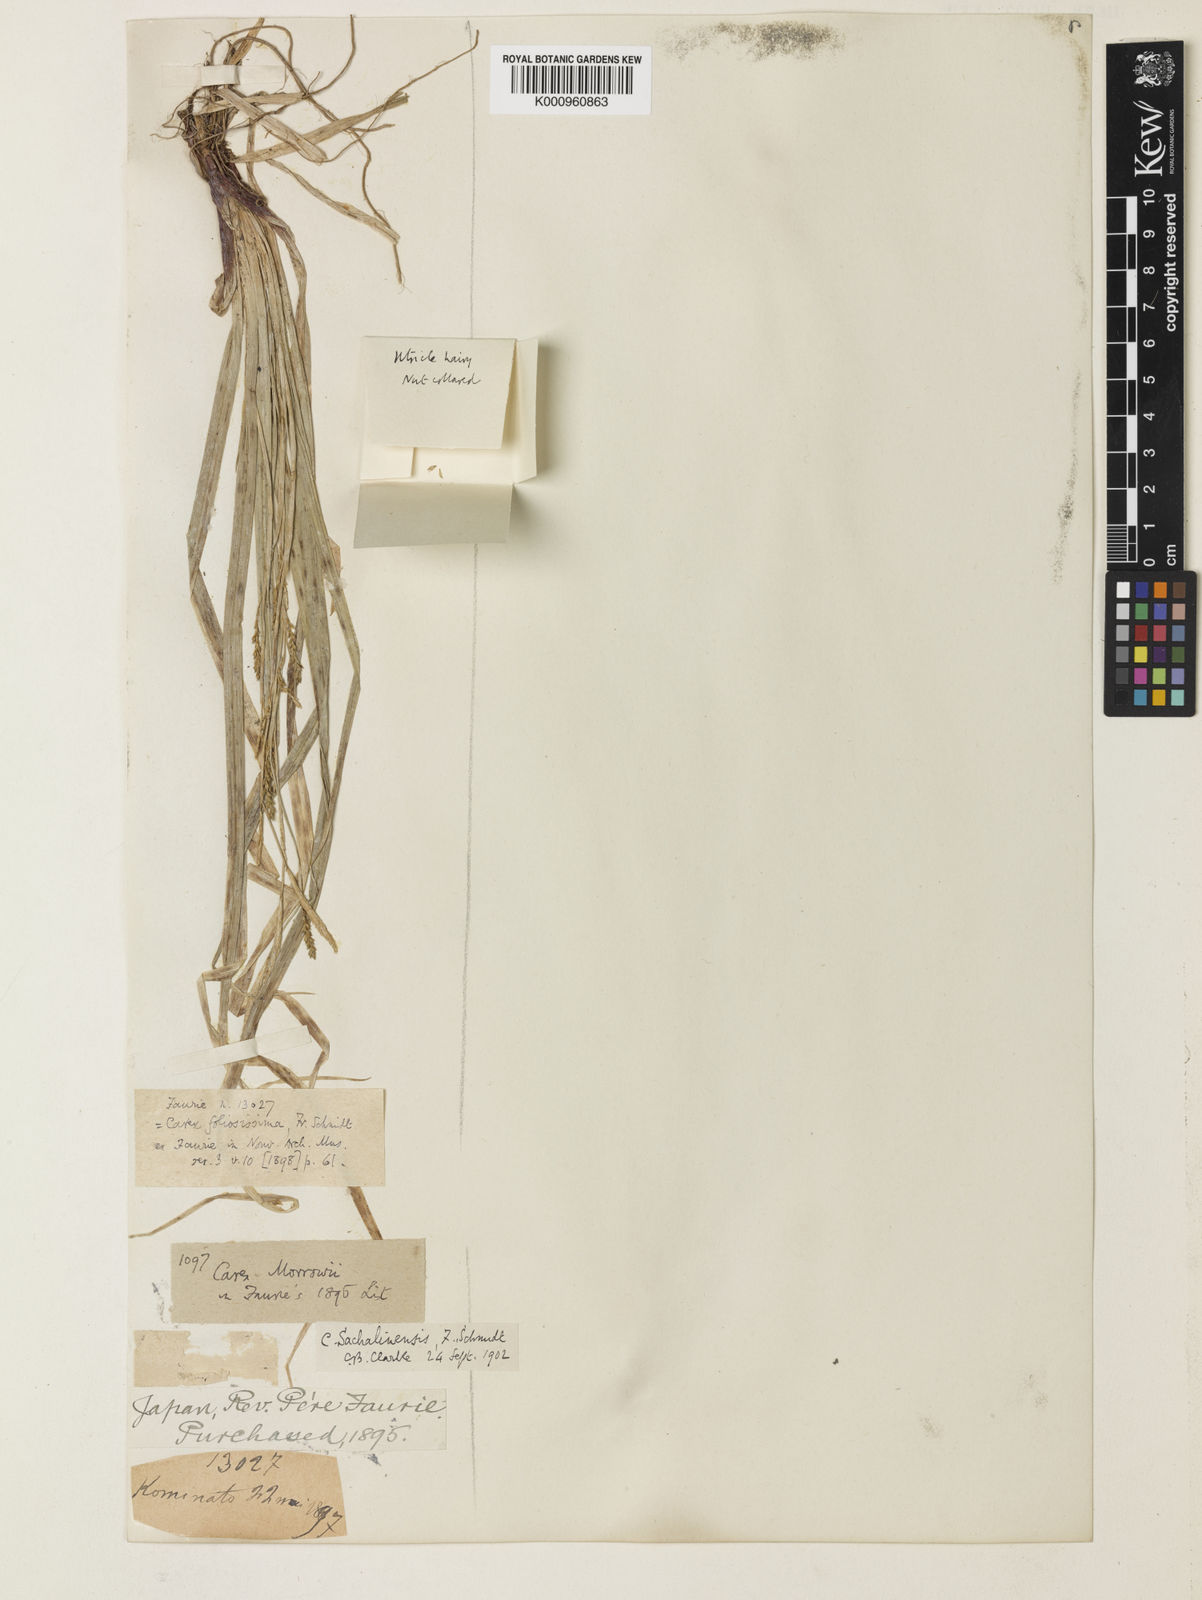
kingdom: Plantae
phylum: Tracheophyta
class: Liliopsida
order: Poales
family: Cyperaceae
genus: Carex
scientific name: Carex foliosissima
